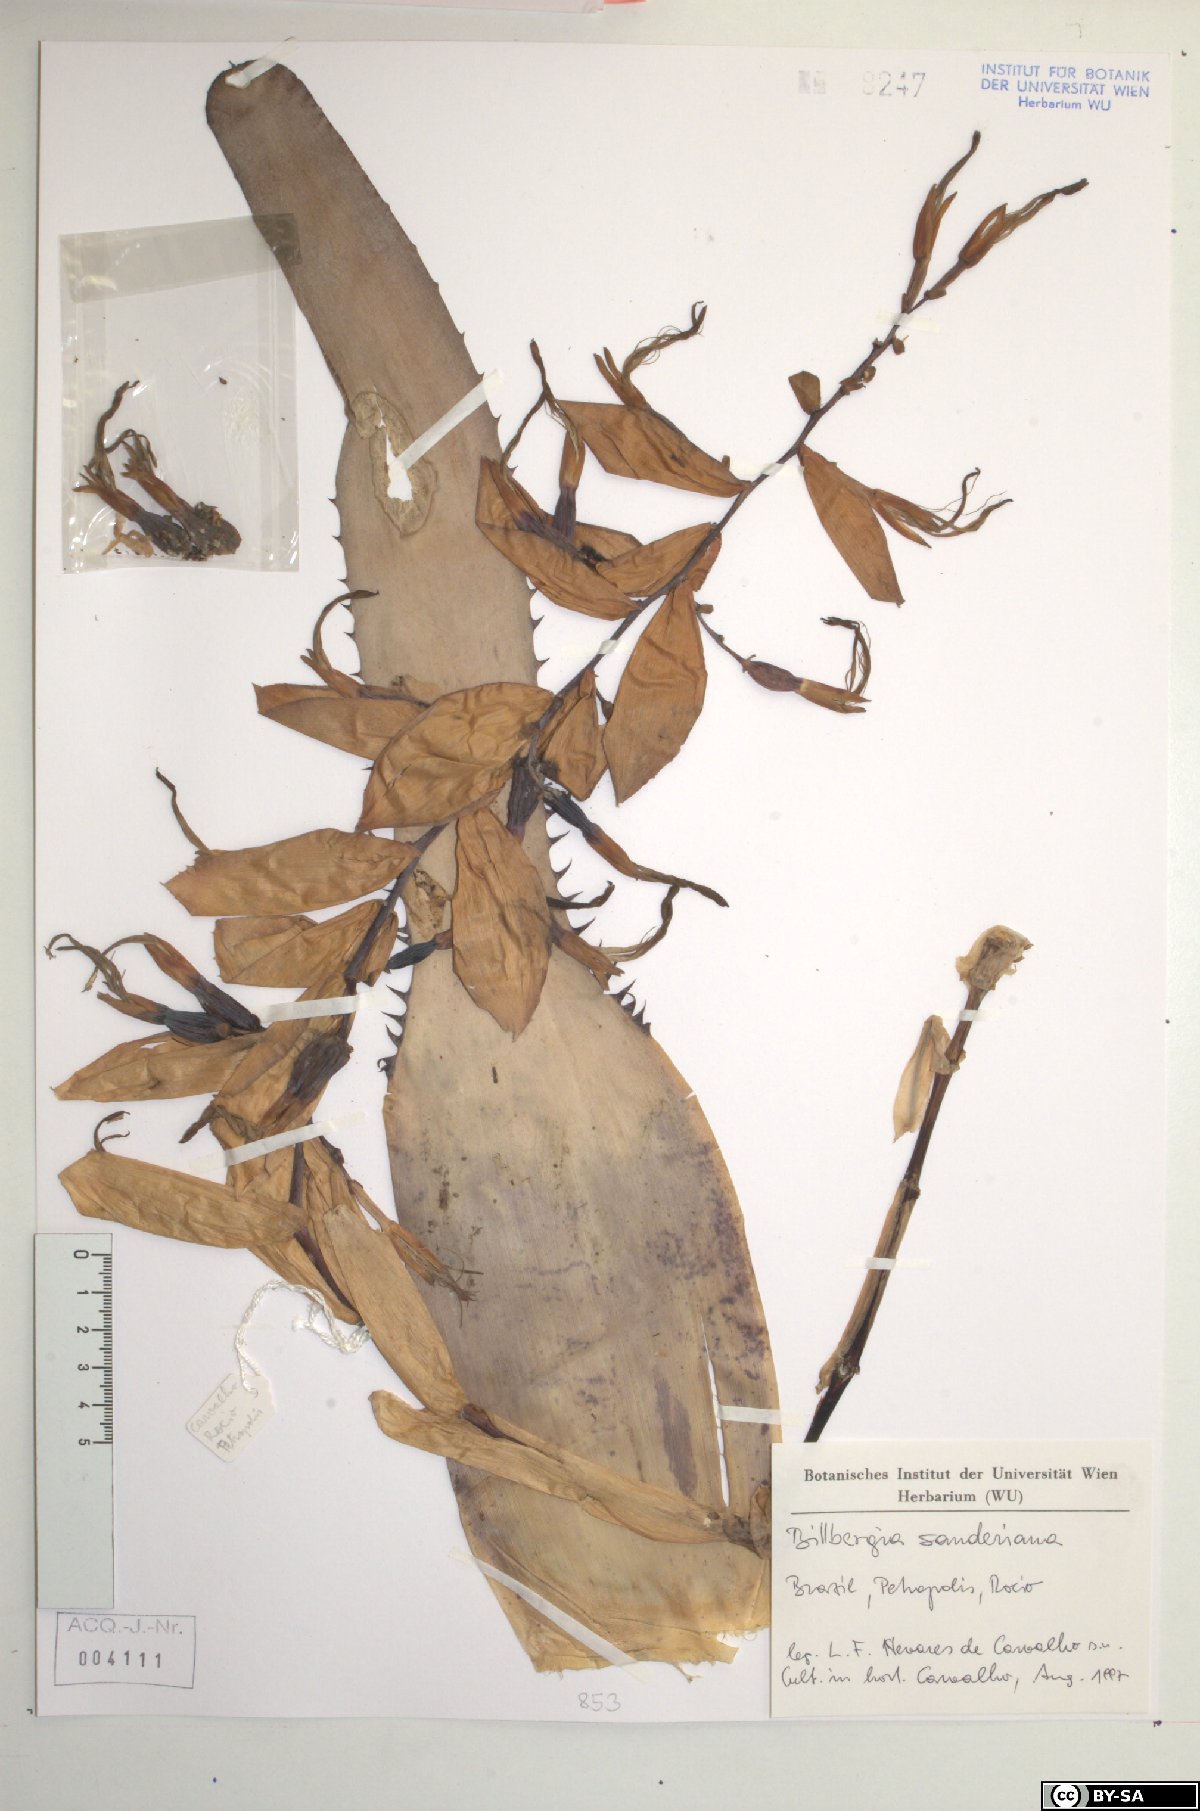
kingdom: Plantae
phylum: Tracheophyta
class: Liliopsida
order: Poales
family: Bromeliaceae
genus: Billbergia
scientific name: Billbergia sanderiana
